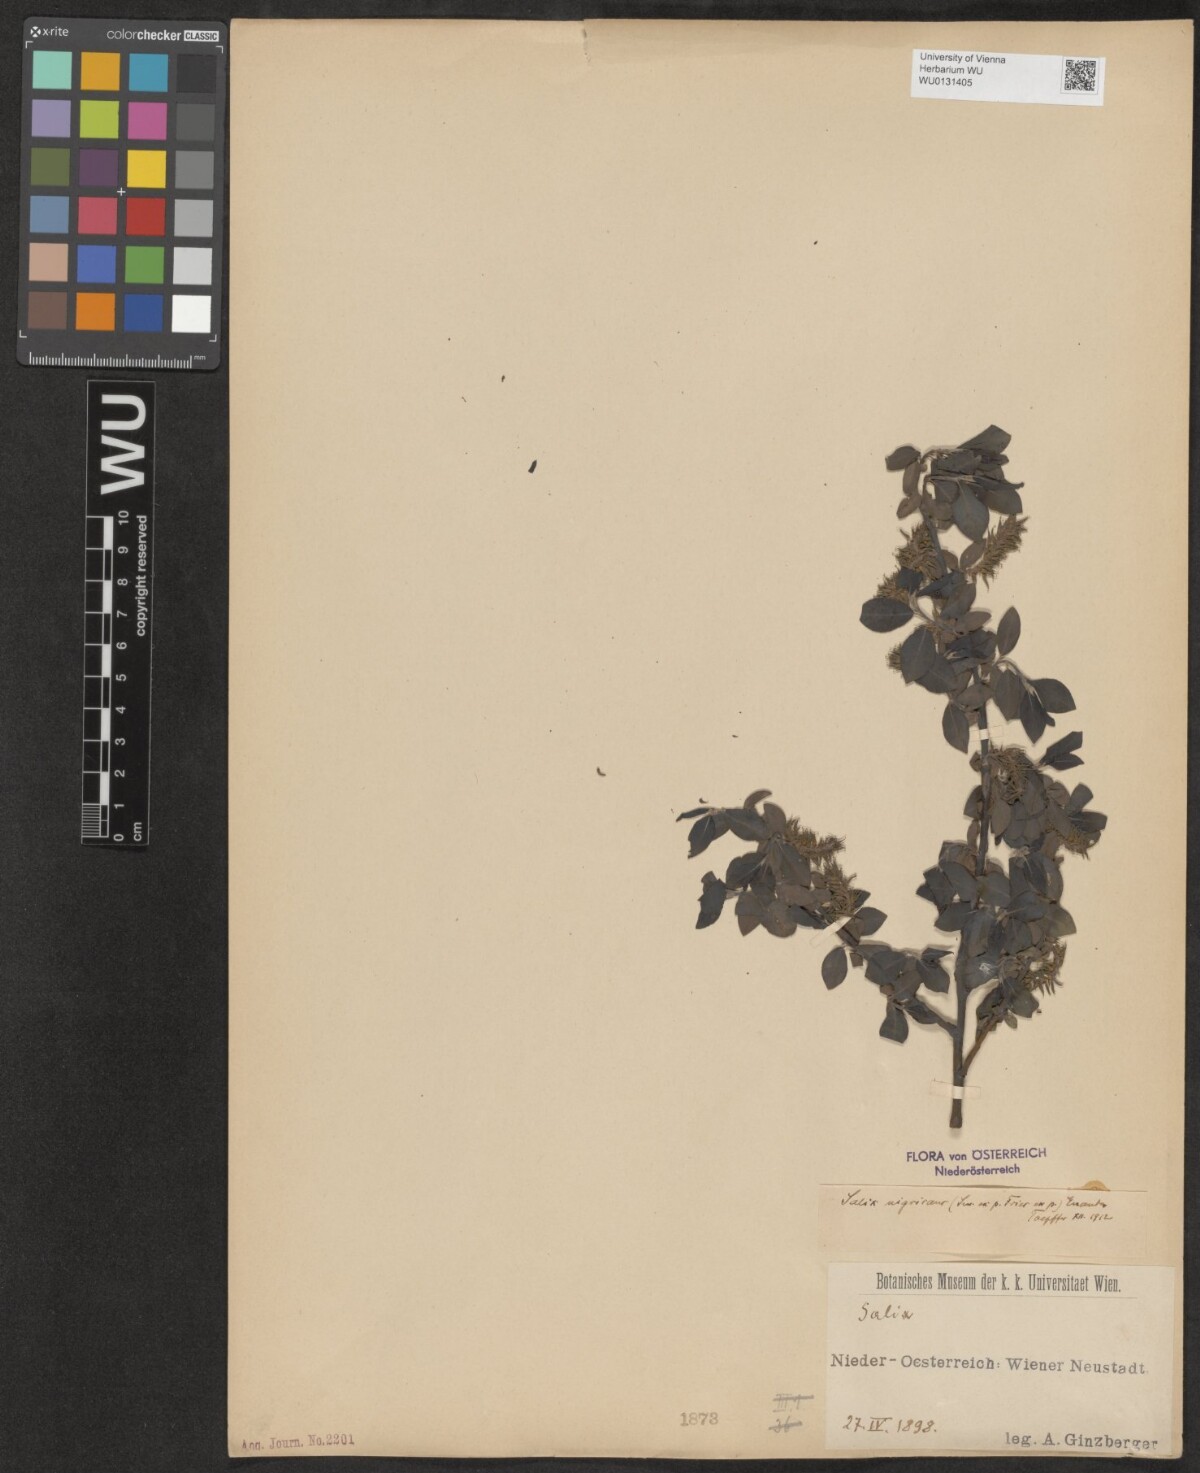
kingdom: Plantae
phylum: Tracheophyta
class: Magnoliopsida
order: Malpighiales
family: Salicaceae
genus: Salix
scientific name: Salix myrsinifolia
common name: Dark-leaved willow
